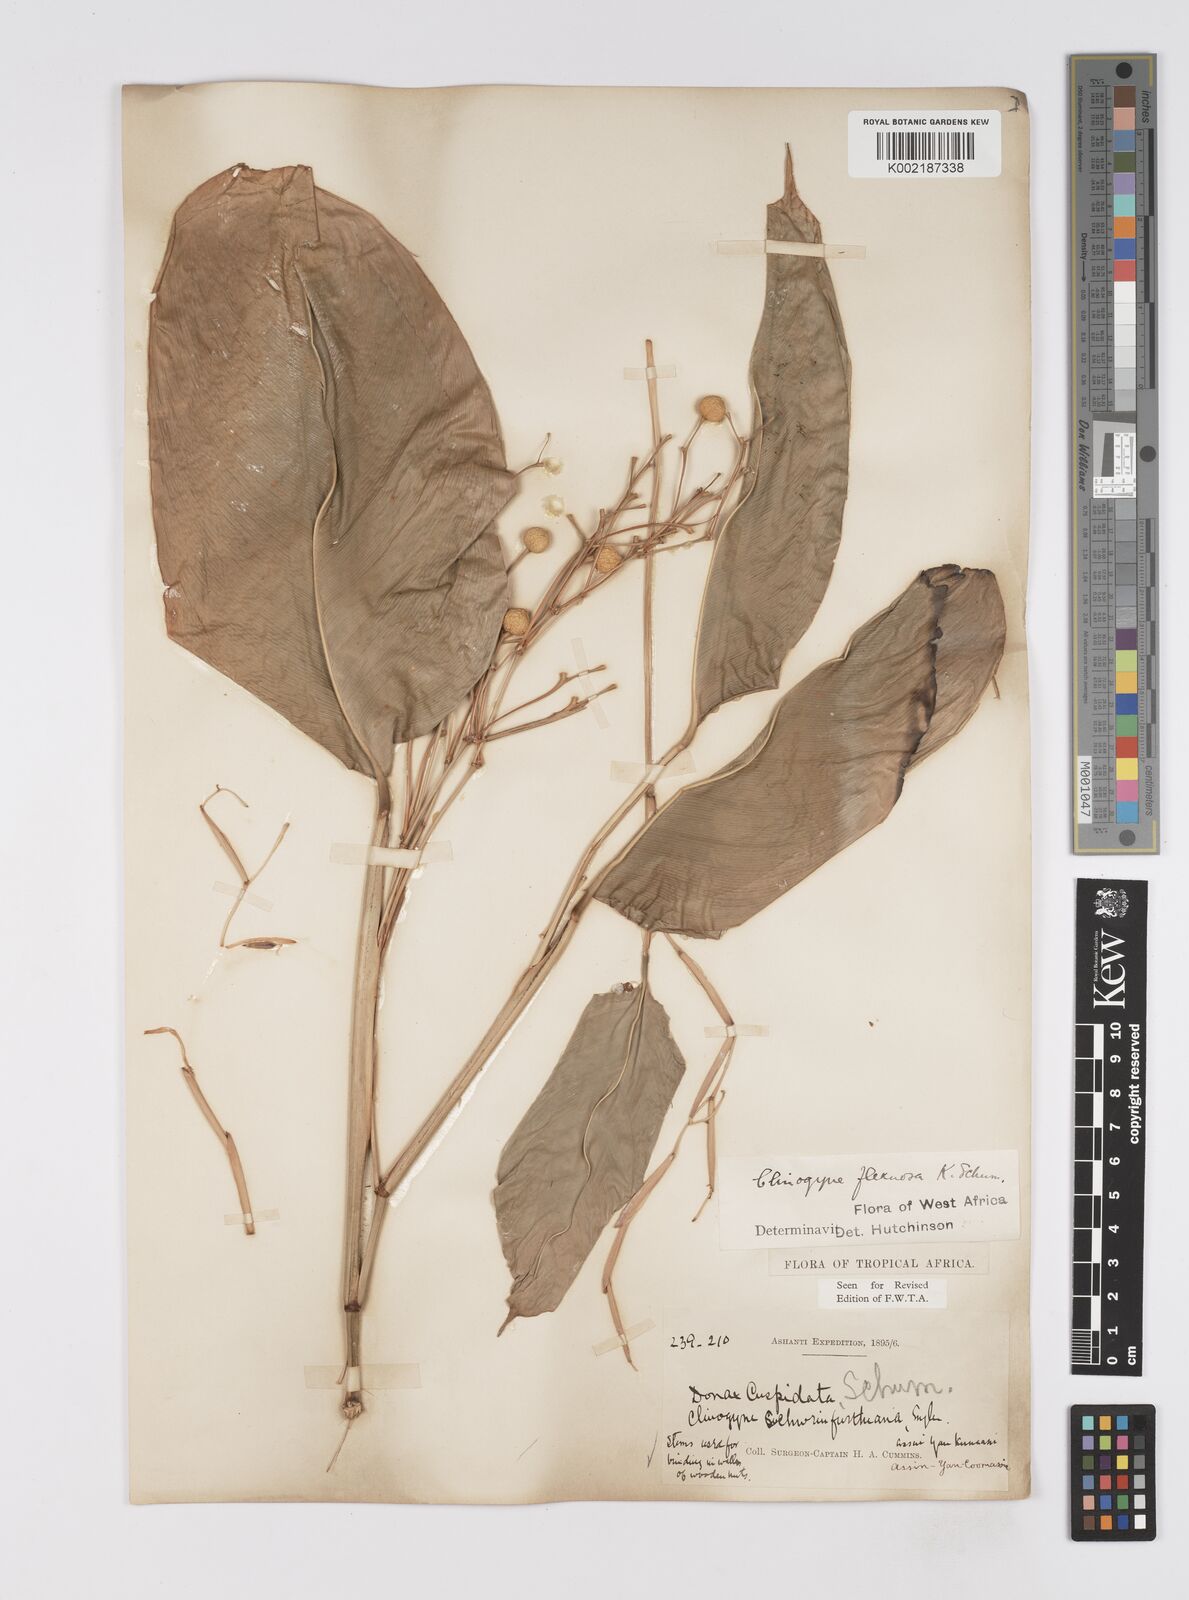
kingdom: Plantae
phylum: Tracheophyta
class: Liliopsida
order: Zingiberales
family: Marantaceae
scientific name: Marantaceae
